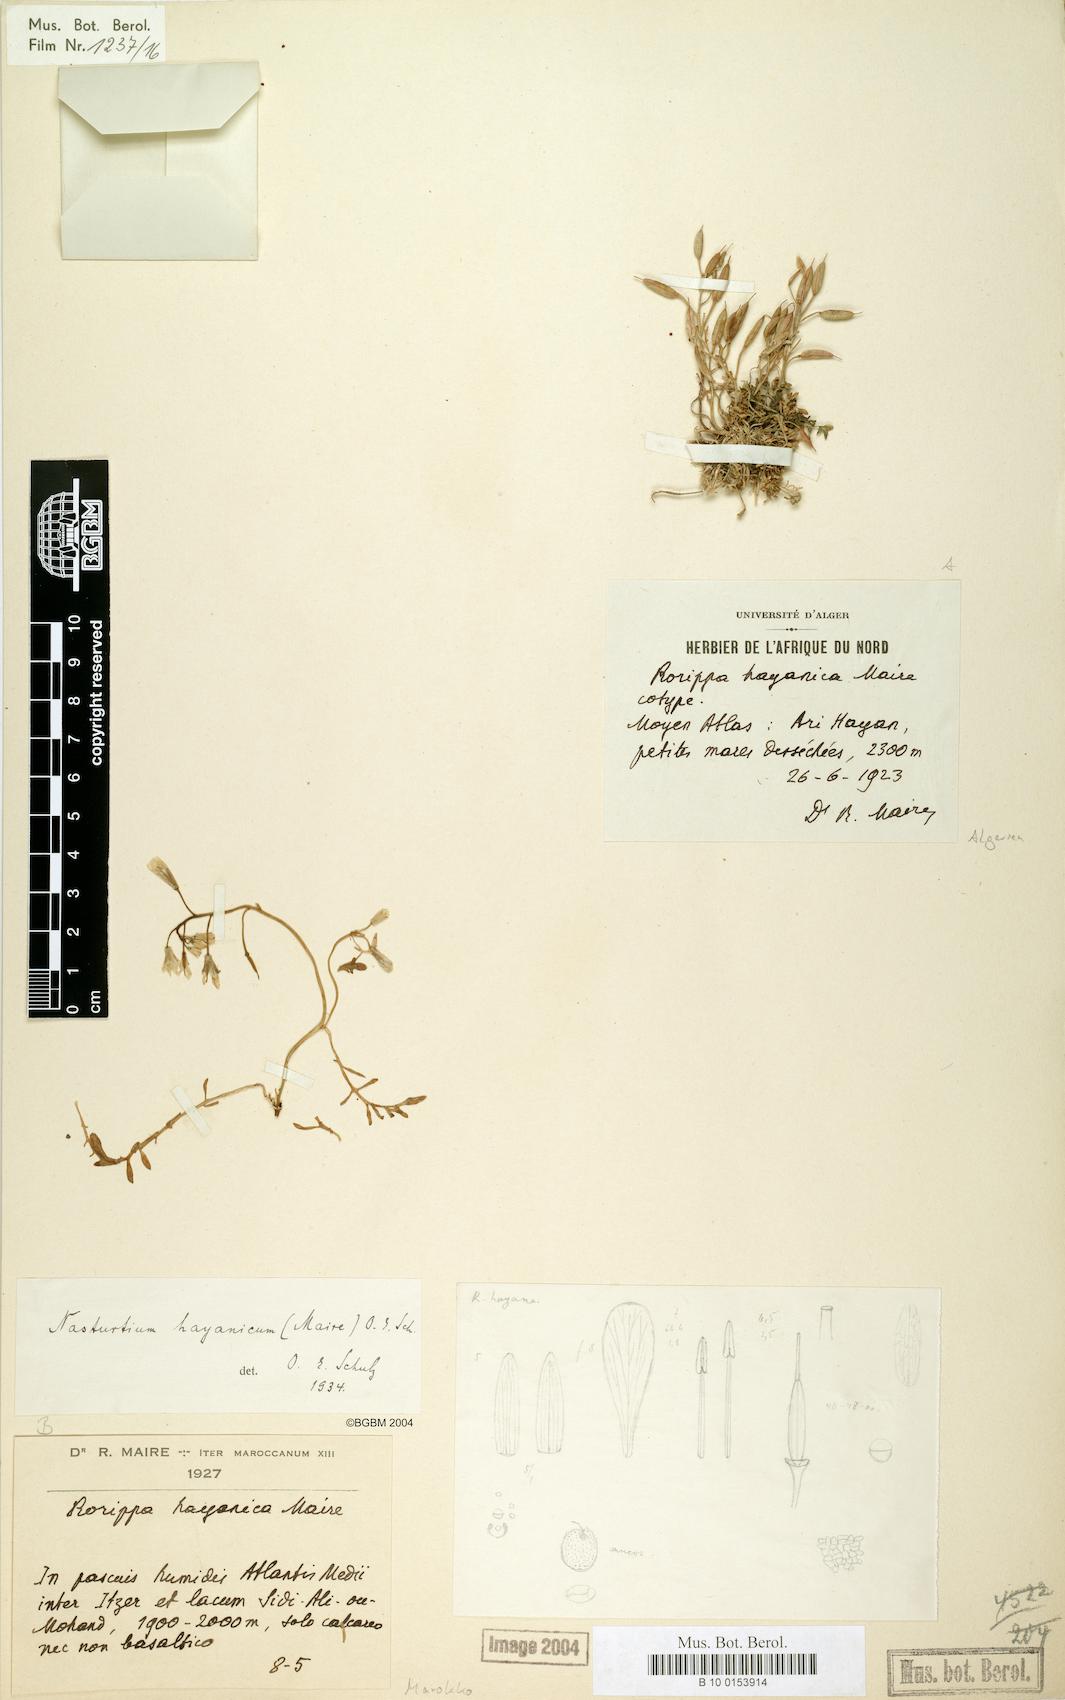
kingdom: Plantae
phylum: Tracheophyta
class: Magnoliopsida
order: Brassicales
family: Brassicaceae
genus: Rorippa
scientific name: Rorippa hayanica
